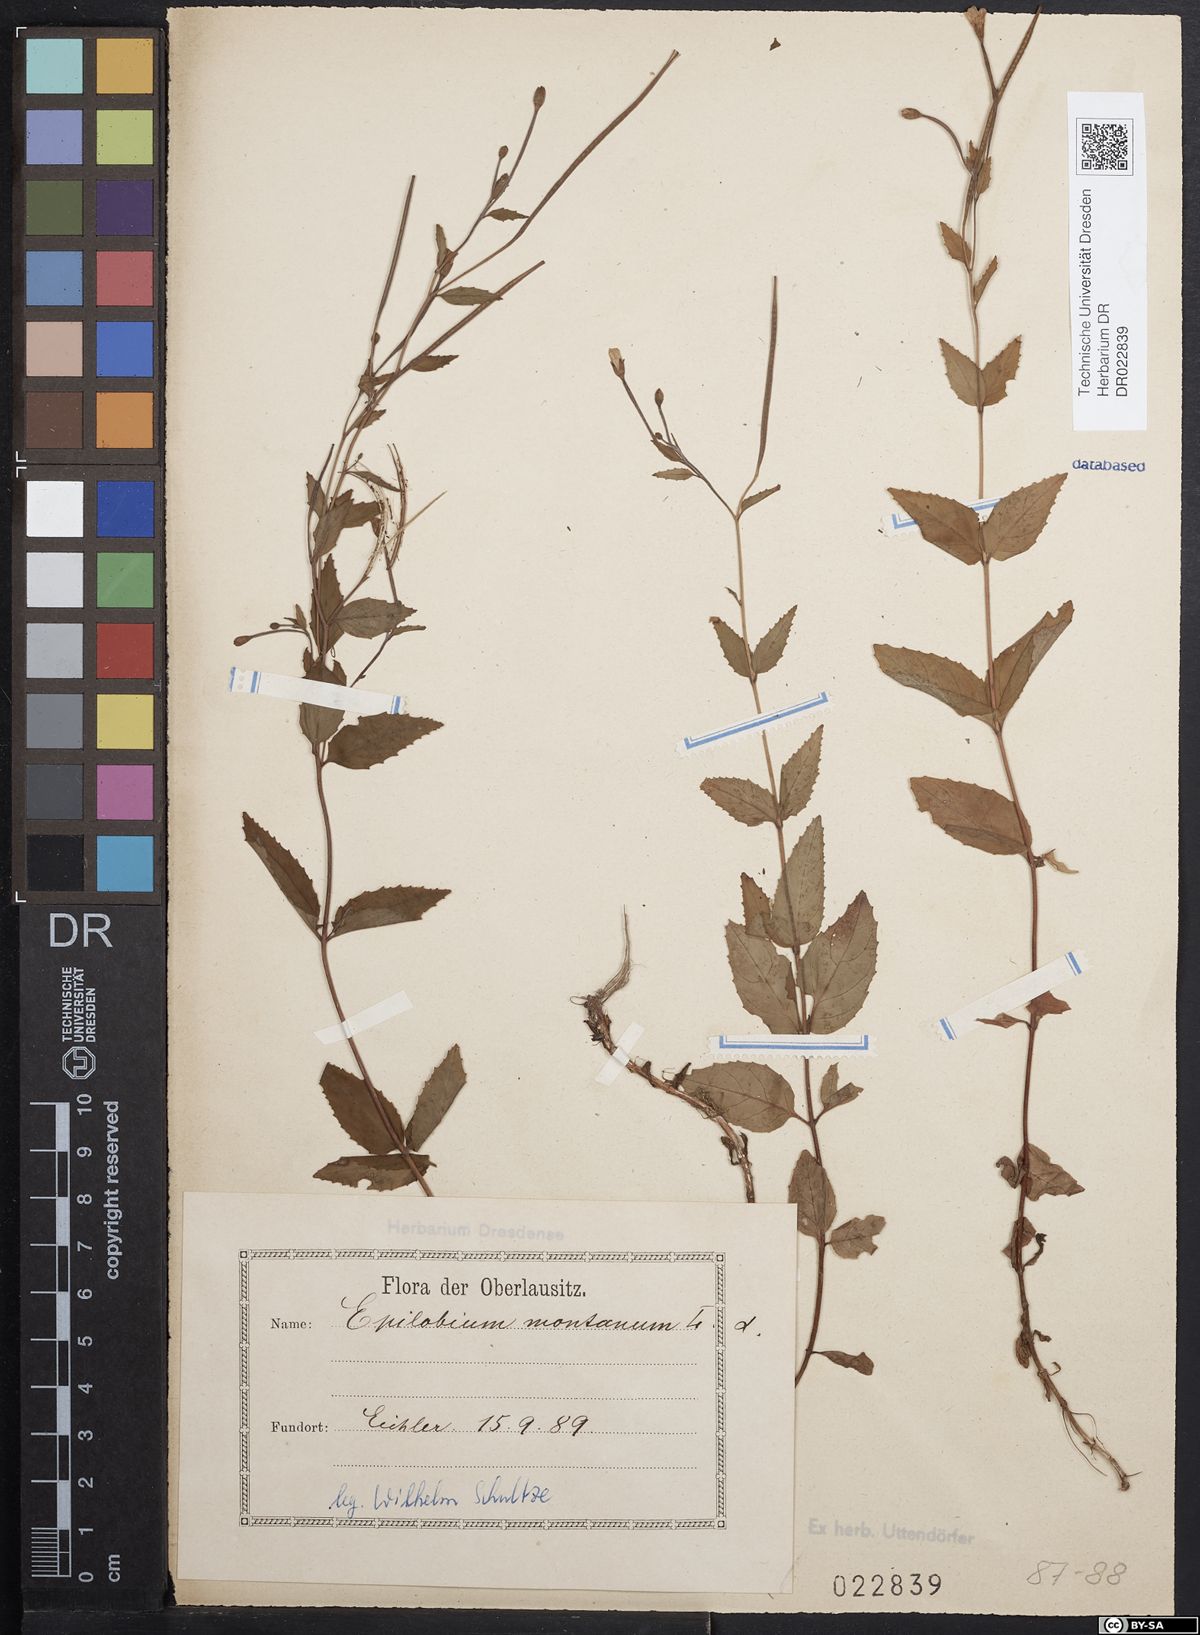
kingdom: Plantae
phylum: Tracheophyta
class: Magnoliopsida
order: Myrtales
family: Onagraceae
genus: Epilobium
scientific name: Epilobium montanum
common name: Broad-leaved willowherb
